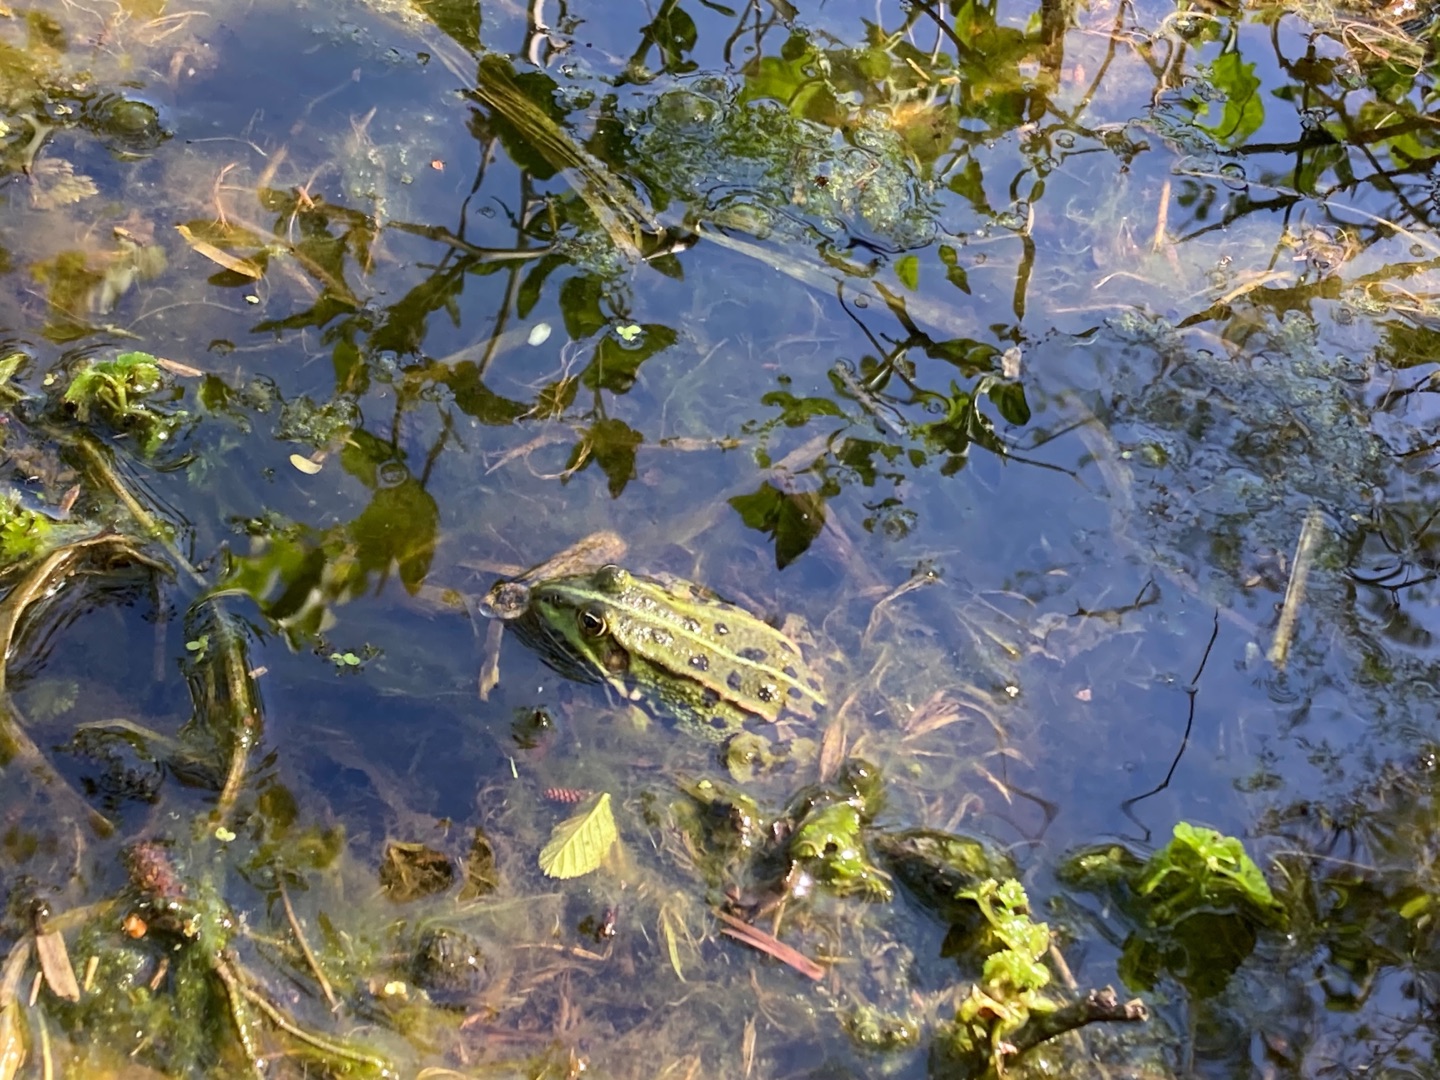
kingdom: Animalia
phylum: Chordata
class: Amphibia
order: Anura
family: Ranidae
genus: Pelophylax
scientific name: Pelophylax lessonae
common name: Grøn frø
